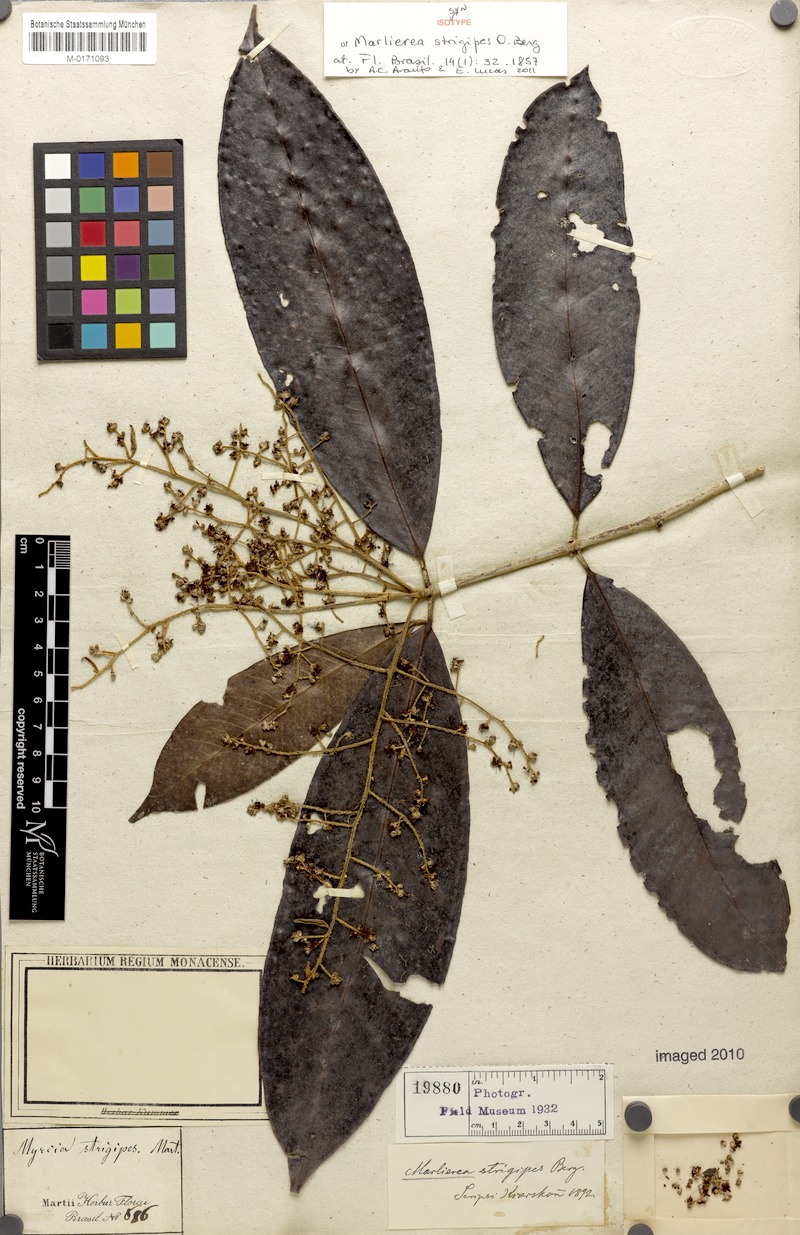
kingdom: Plantae
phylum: Tracheophyta
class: Magnoliopsida
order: Myrtales
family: Myrtaceae
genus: Myrcia
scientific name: Myrcia neotomentosa
